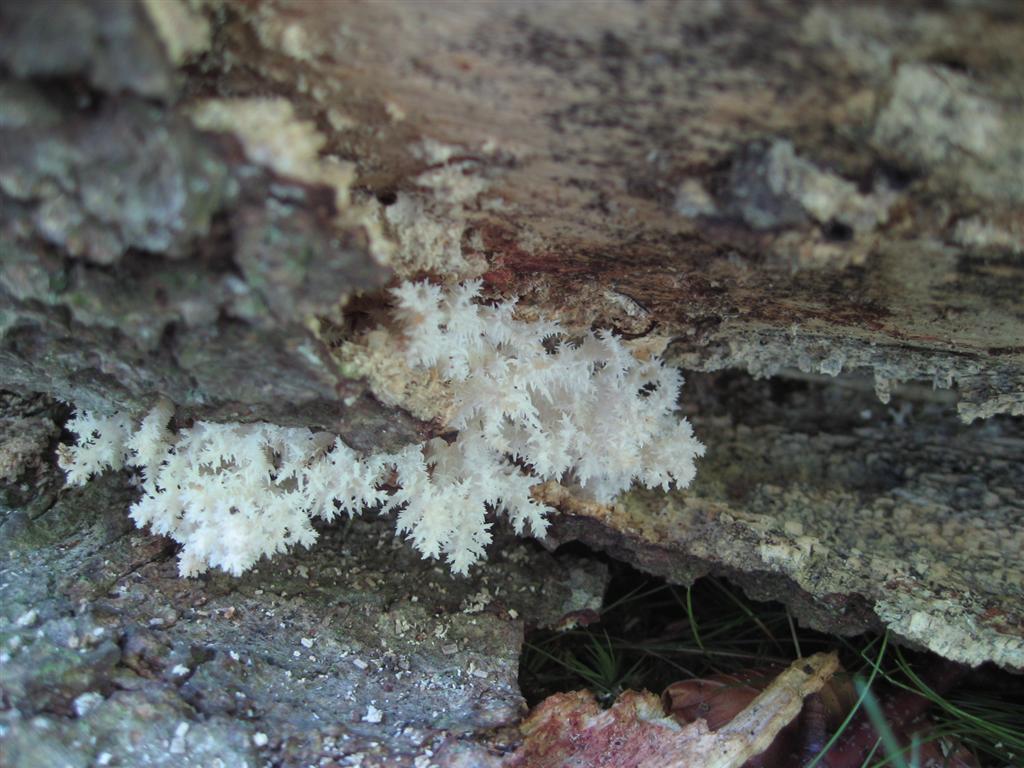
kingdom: Fungi
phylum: Basidiomycota
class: Agaricomycetes
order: Russulales
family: Hericiaceae
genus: Hericium
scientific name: Hericium coralloides
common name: koralpigsvamp
